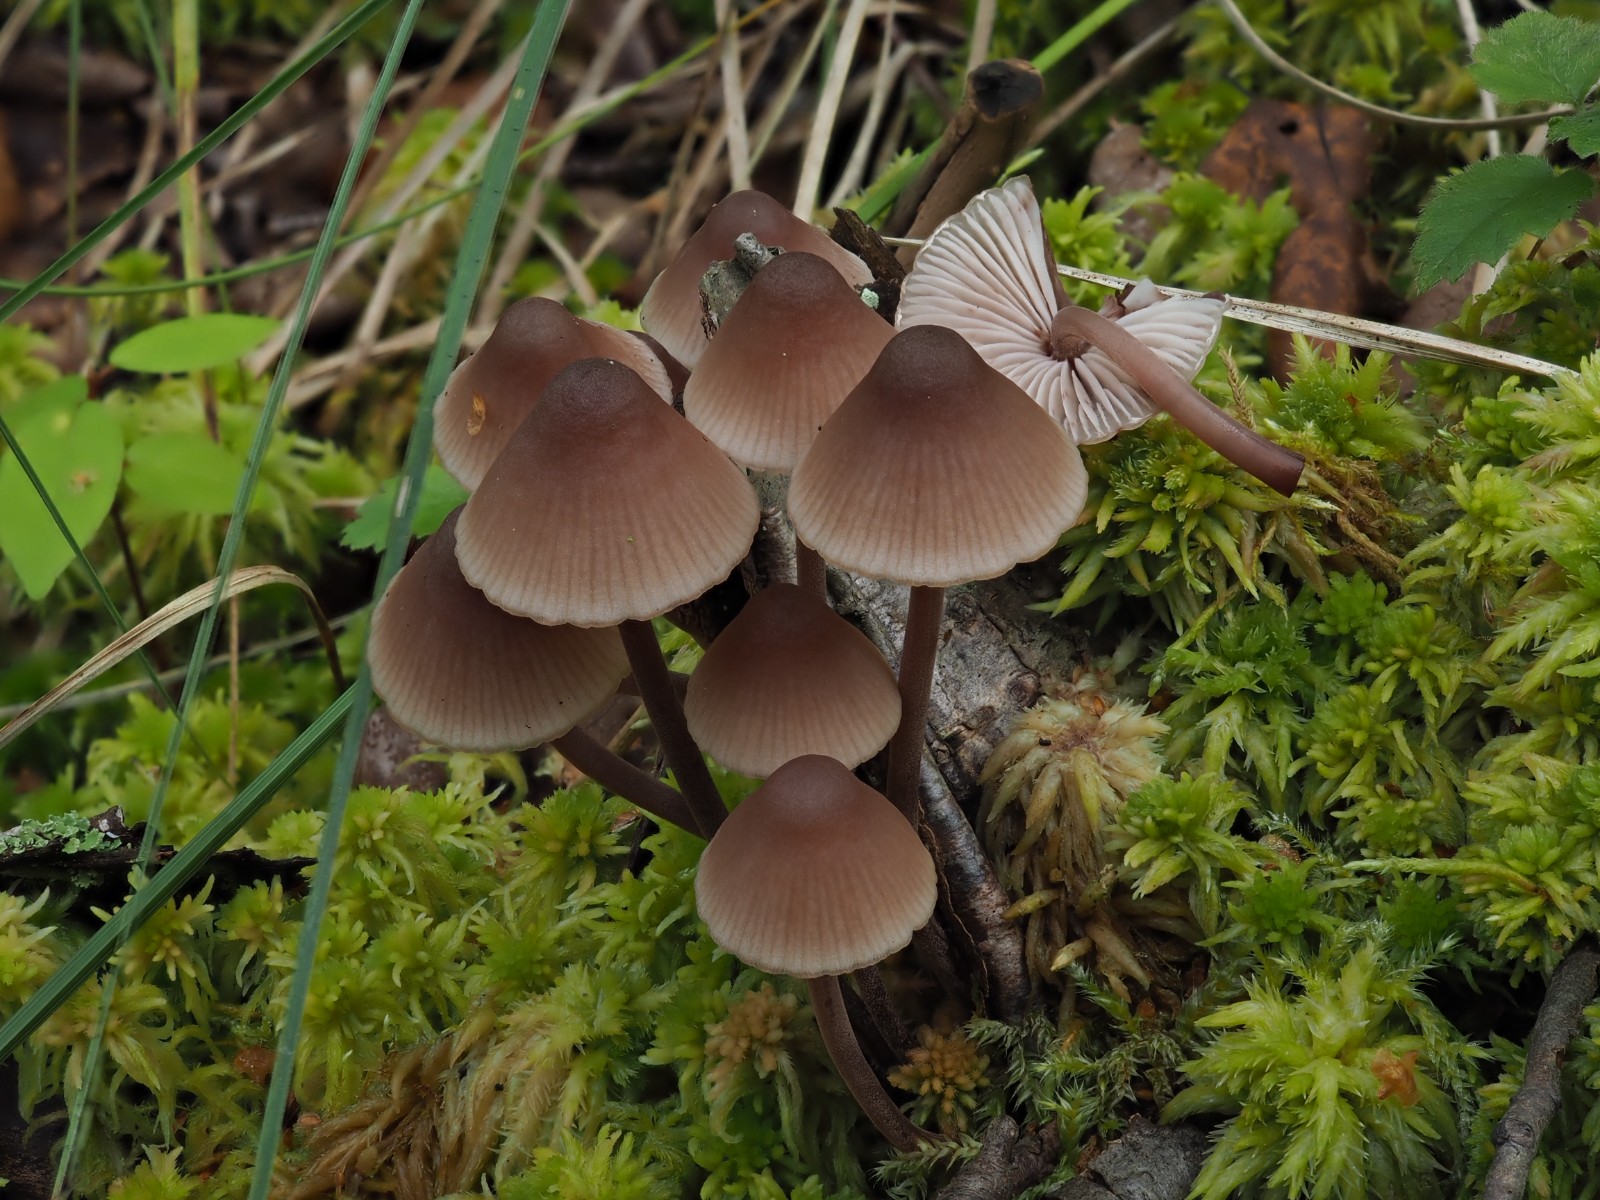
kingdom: Fungi
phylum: Basidiomycota
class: Agaricomycetes
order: Agaricales
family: Mycenaceae
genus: Mycena
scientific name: Mycena haematopus
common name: blødende huesvamp
